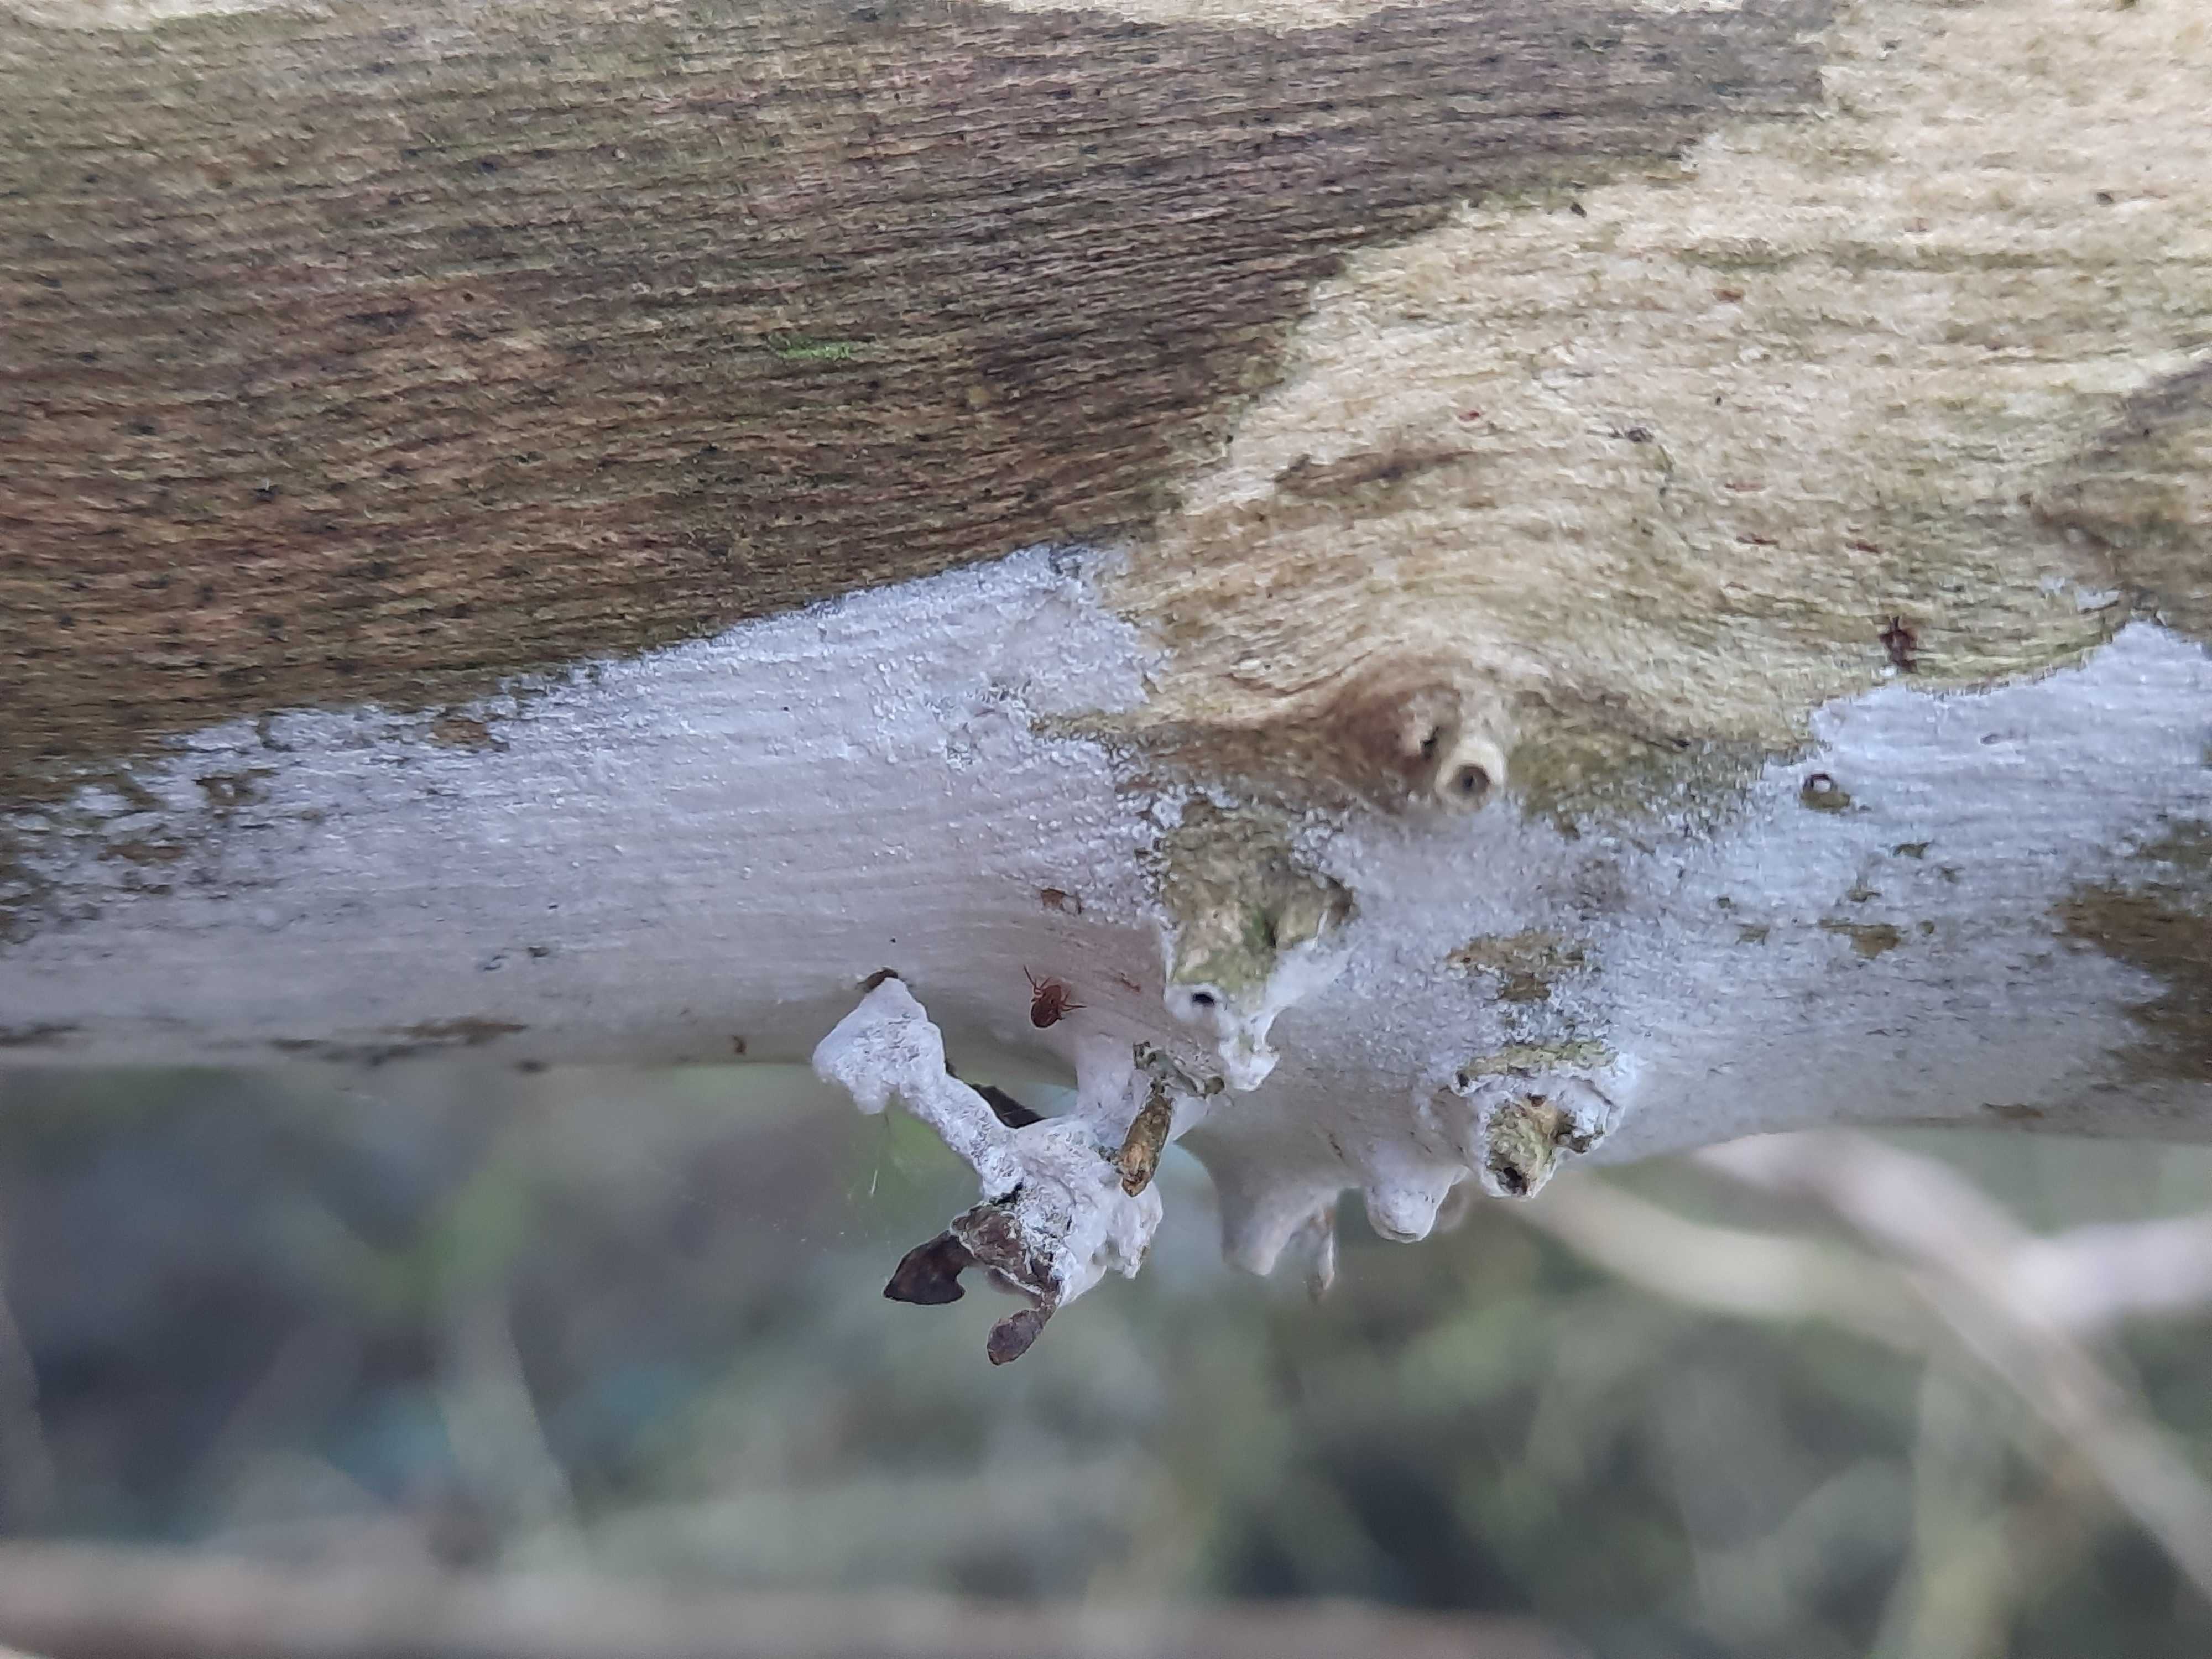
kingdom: Fungi
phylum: Basidiomycota
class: Agaricomycetes
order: Corticiales
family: Corticiaceae
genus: Lyomyces
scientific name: Lyomyces sambuci
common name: almindelig hyldehinde
